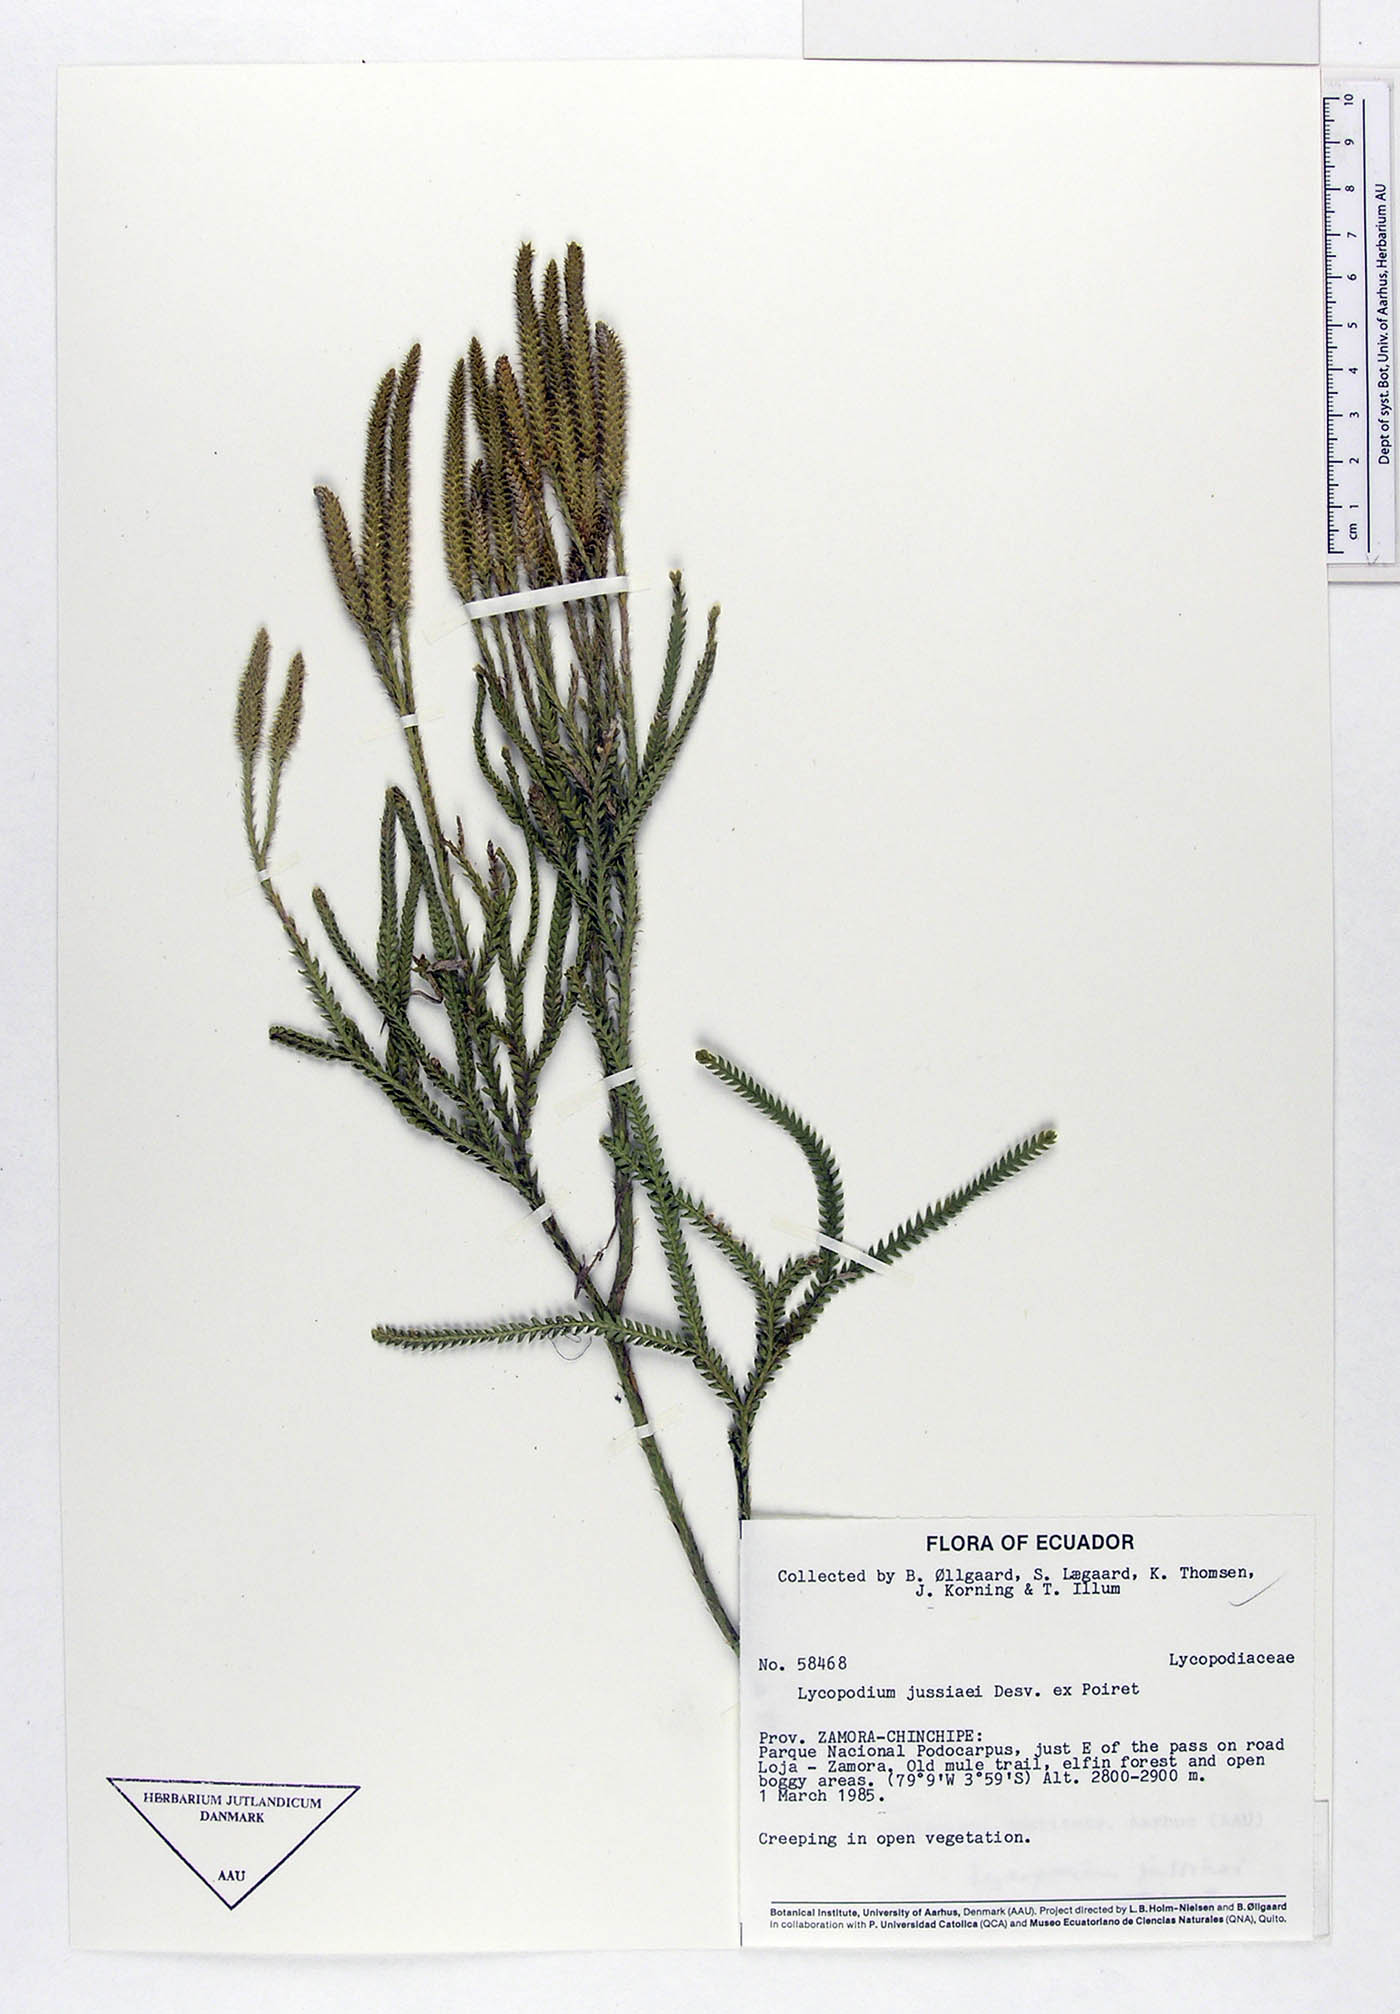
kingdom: Plantae
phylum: Tracheophyta
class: Lycopodiopsida
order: Lycopodiales
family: Lycopodiaceae
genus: Diphasium
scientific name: Diphasium jussiaei
